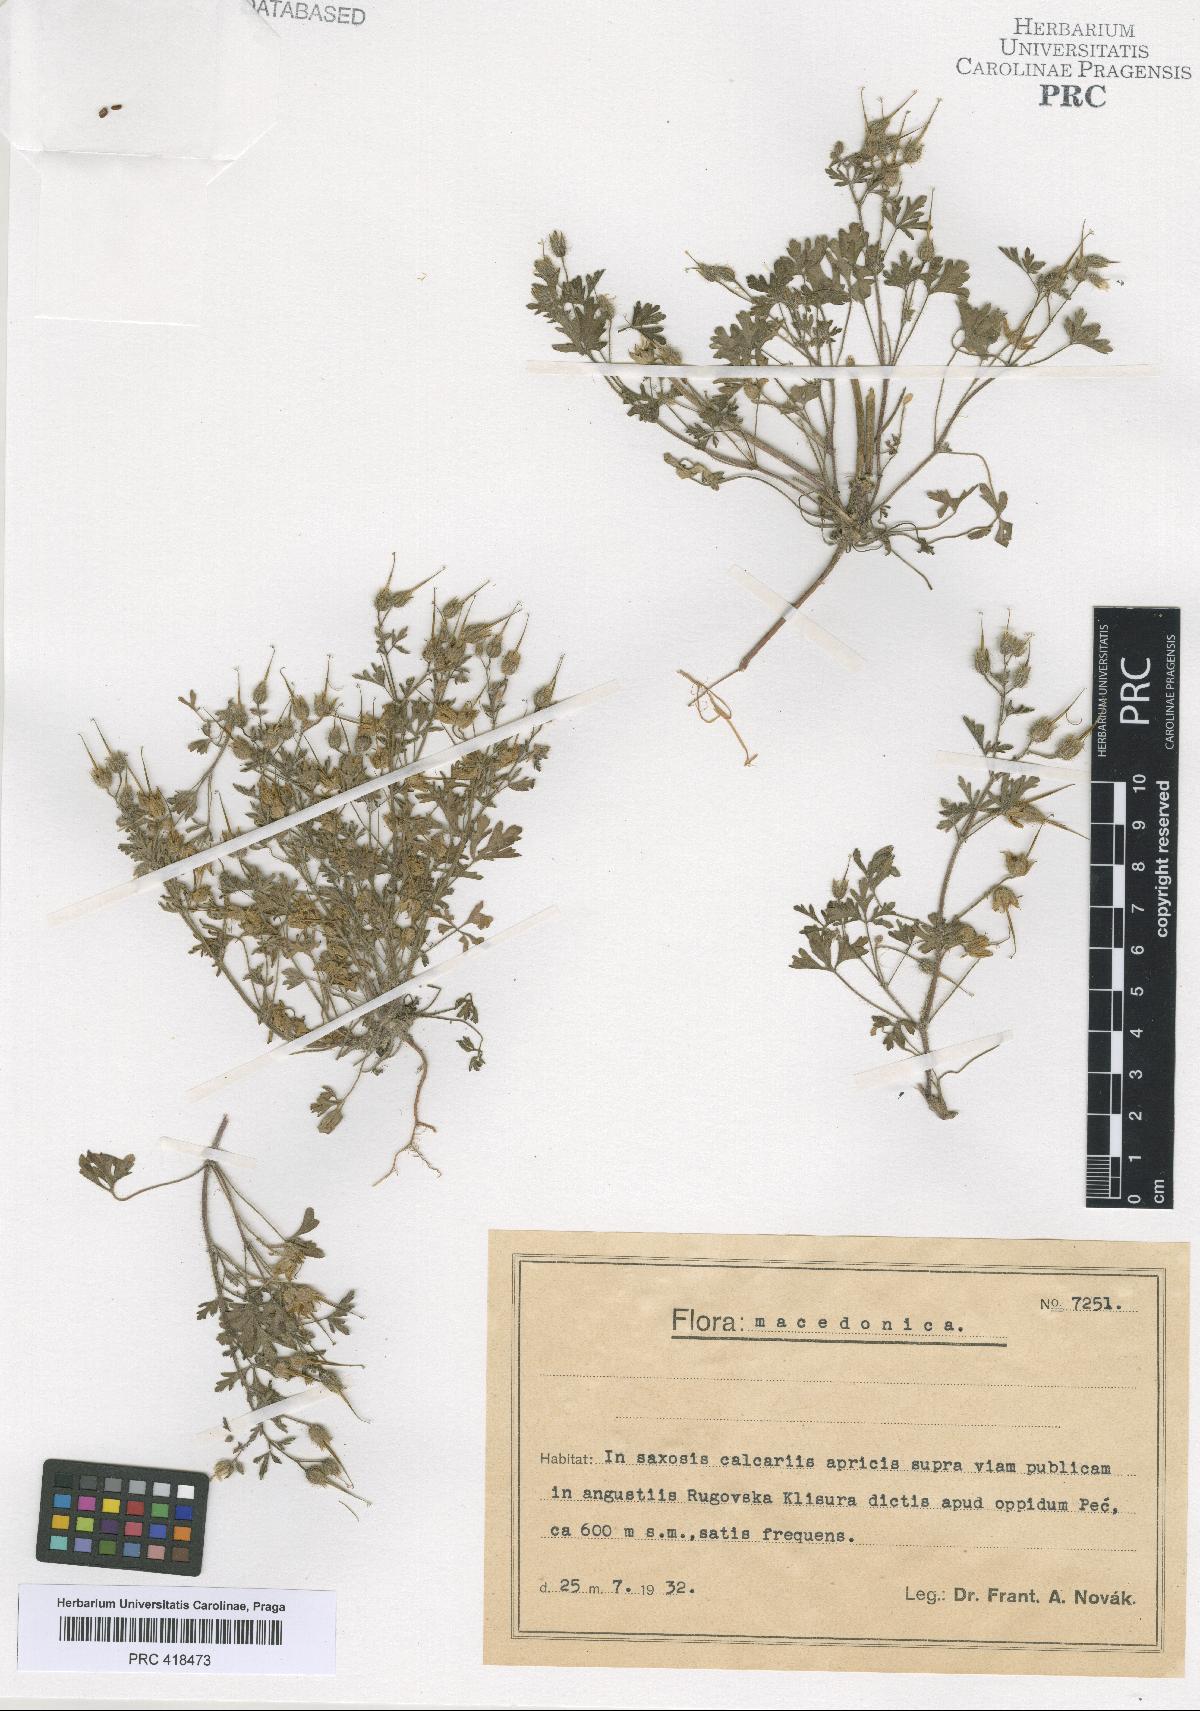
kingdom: Plantae
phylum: Tracheophyta
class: Magnoliopsida
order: Geraniales
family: Geraniaceae
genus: Geranium
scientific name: Geranium purpureum
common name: Little-robin
